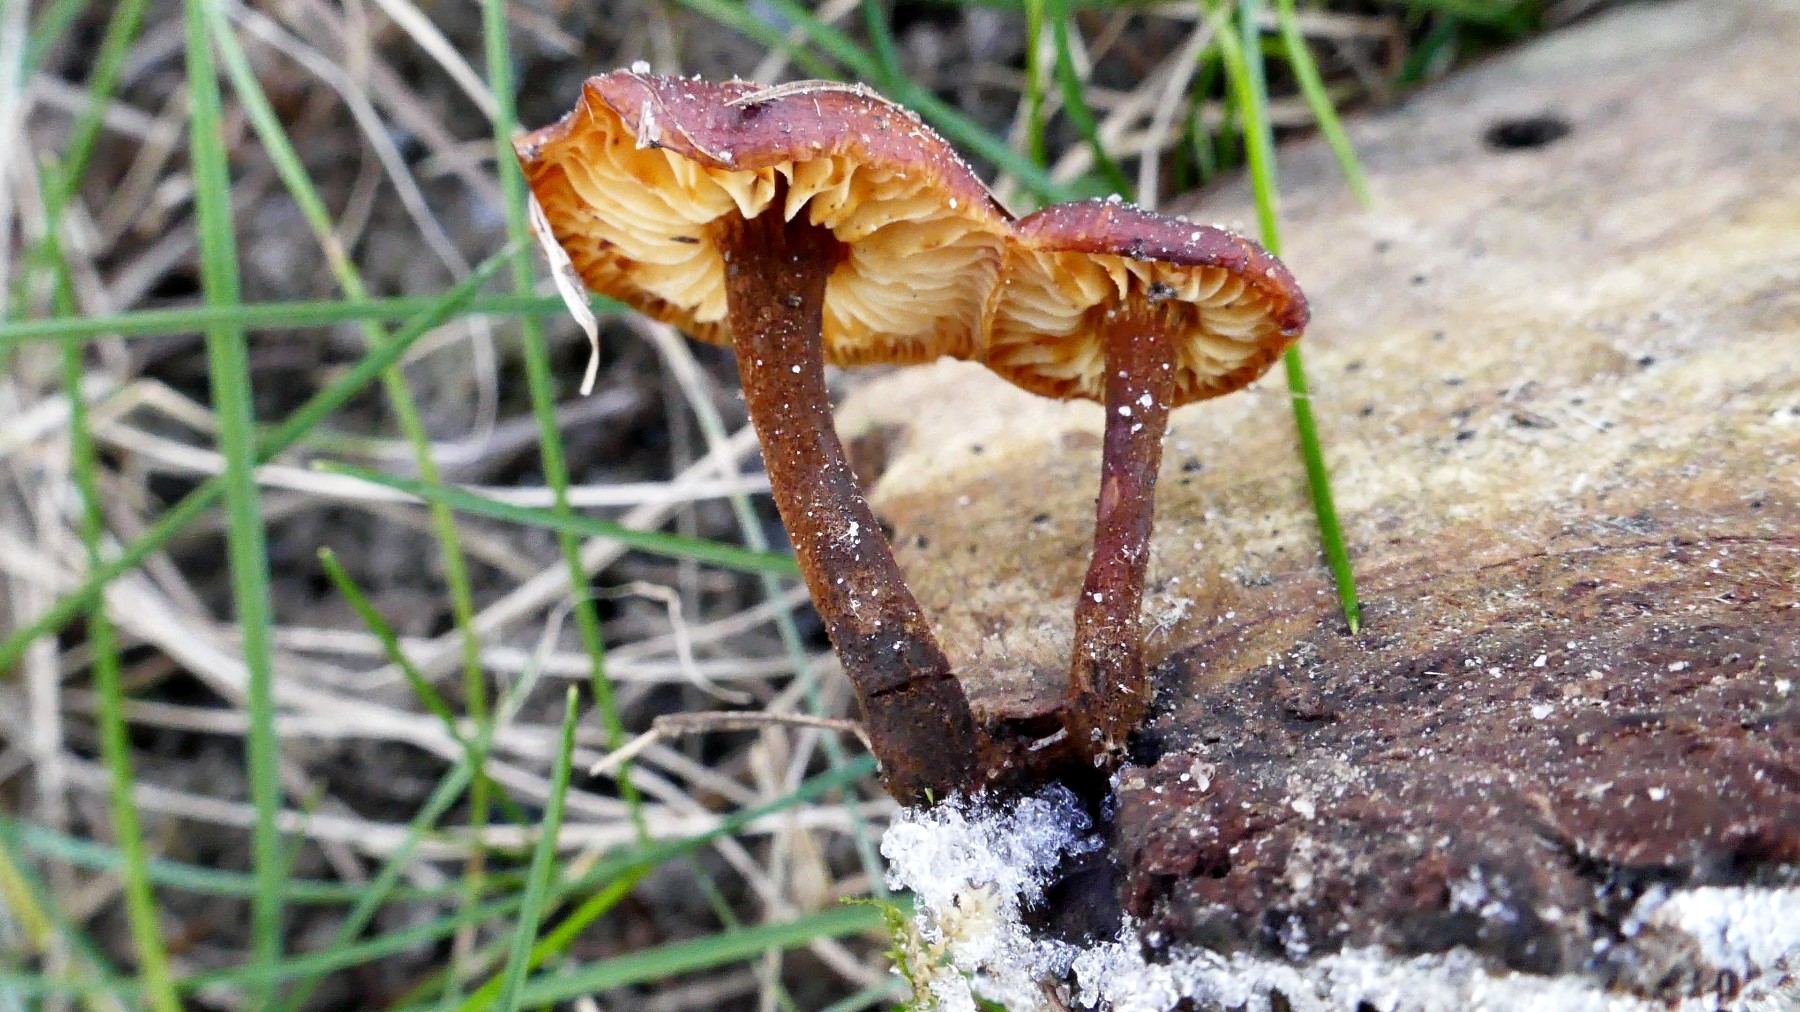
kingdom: Fungi
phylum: Basidiomycota
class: Agaricomycetes
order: Agaricales
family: Physalacriaceae
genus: Flammulina
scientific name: Flammulina velutipes
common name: gul fløjlsfod
